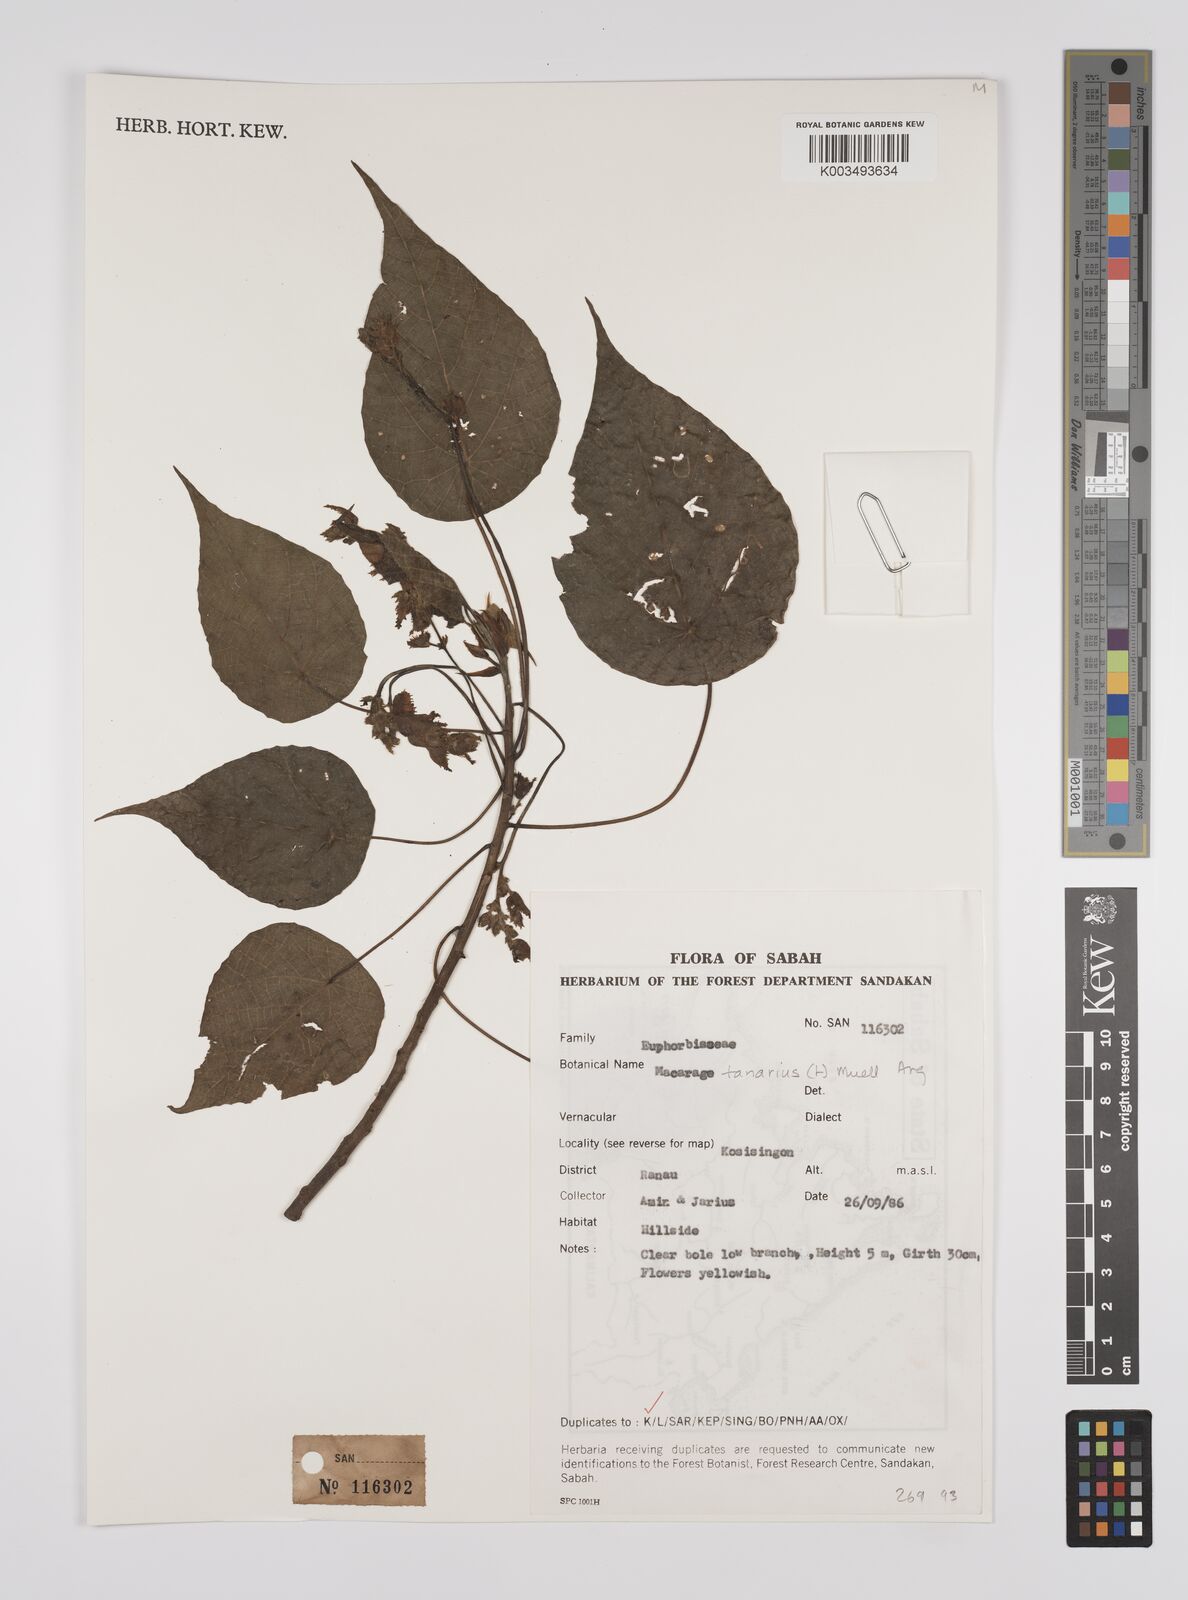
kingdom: Plantae
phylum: Tracheophyta
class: Magnoliopsida
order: Malpighiales
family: Euphorbiaceae
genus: Macaranga
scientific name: Macaranga tanarius
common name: Parasol leaf tree
